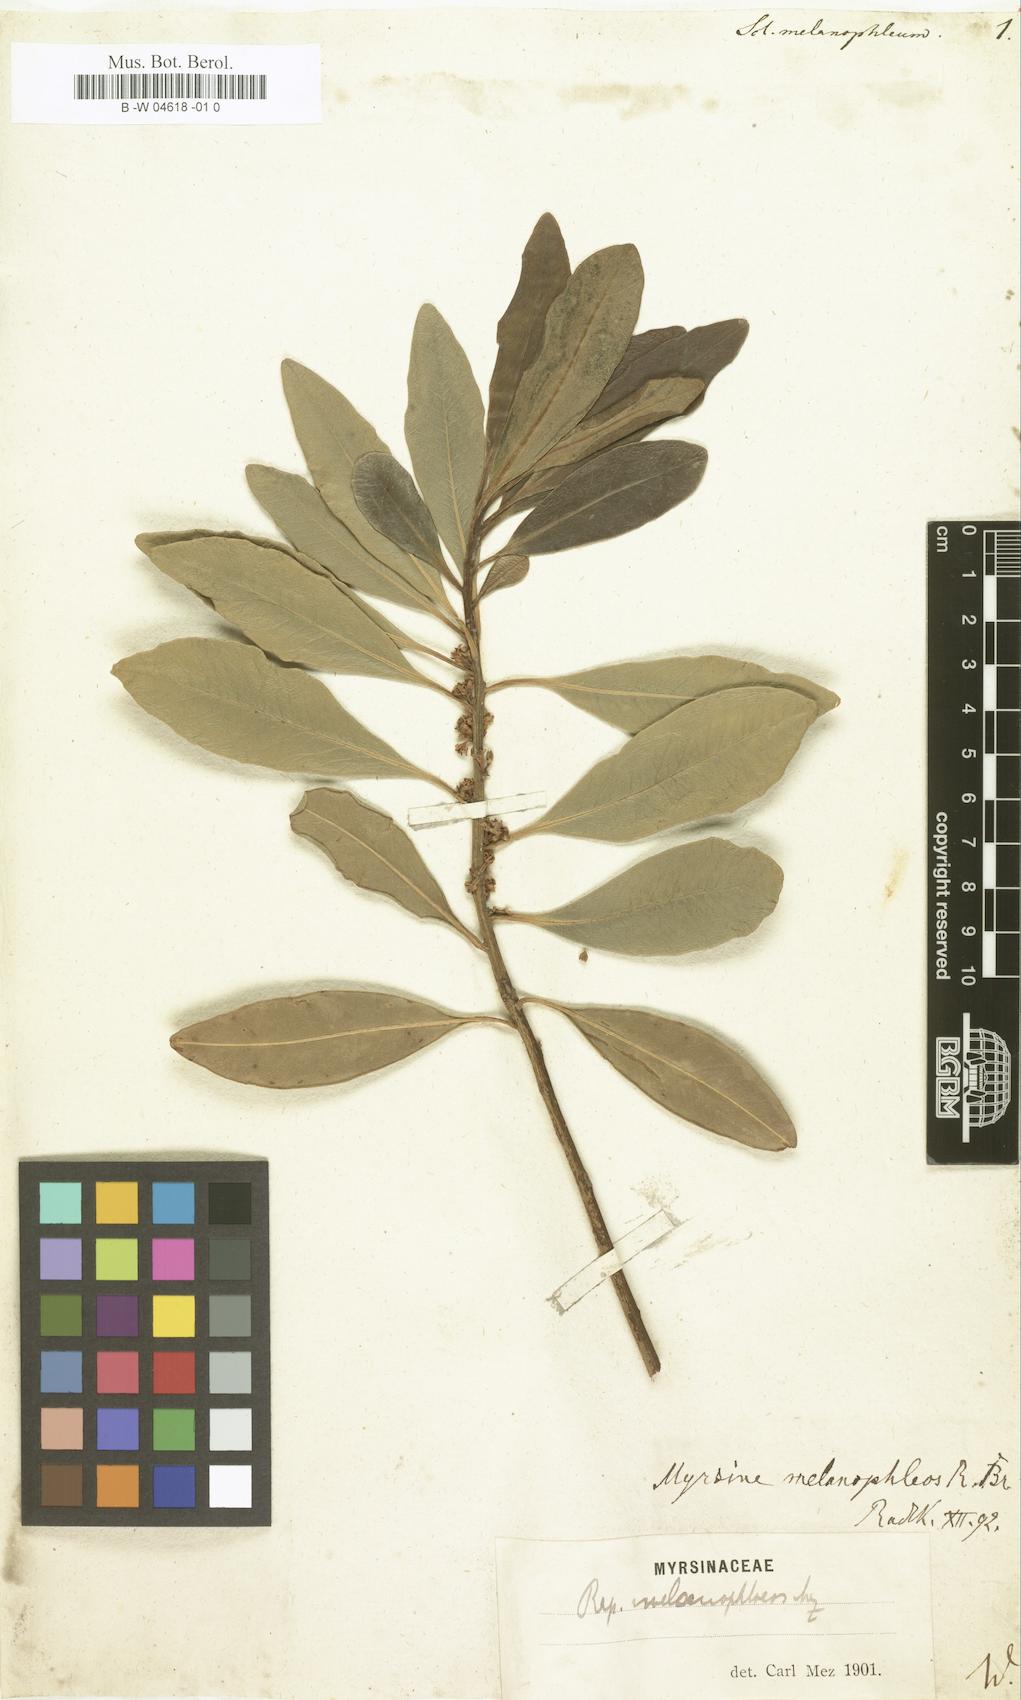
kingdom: Plantae
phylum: Tracheophyta
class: Magnoliopsida
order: Ericales
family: Sapotaceae
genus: Scleroxylon
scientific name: Scleroxylon
